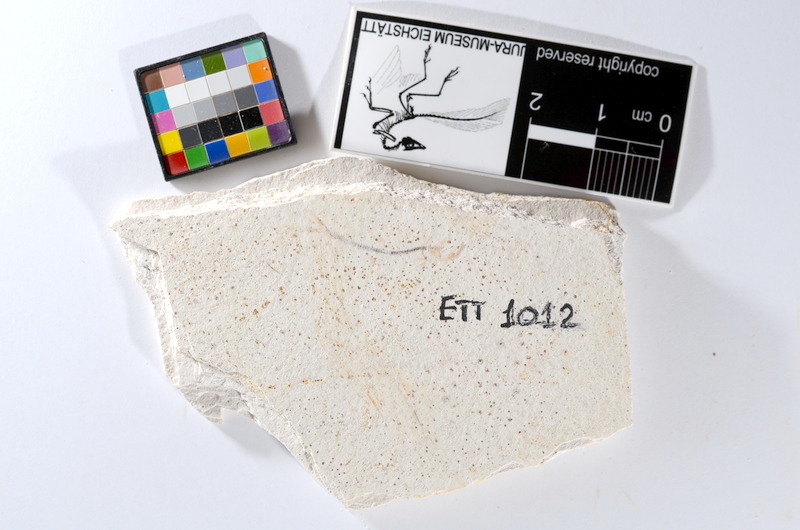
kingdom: Animalia
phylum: Chordata
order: Salmoniformes
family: Orthogonikleithridae
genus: Orthogonikleithrus
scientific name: Orthogonikleithrus hoelli
